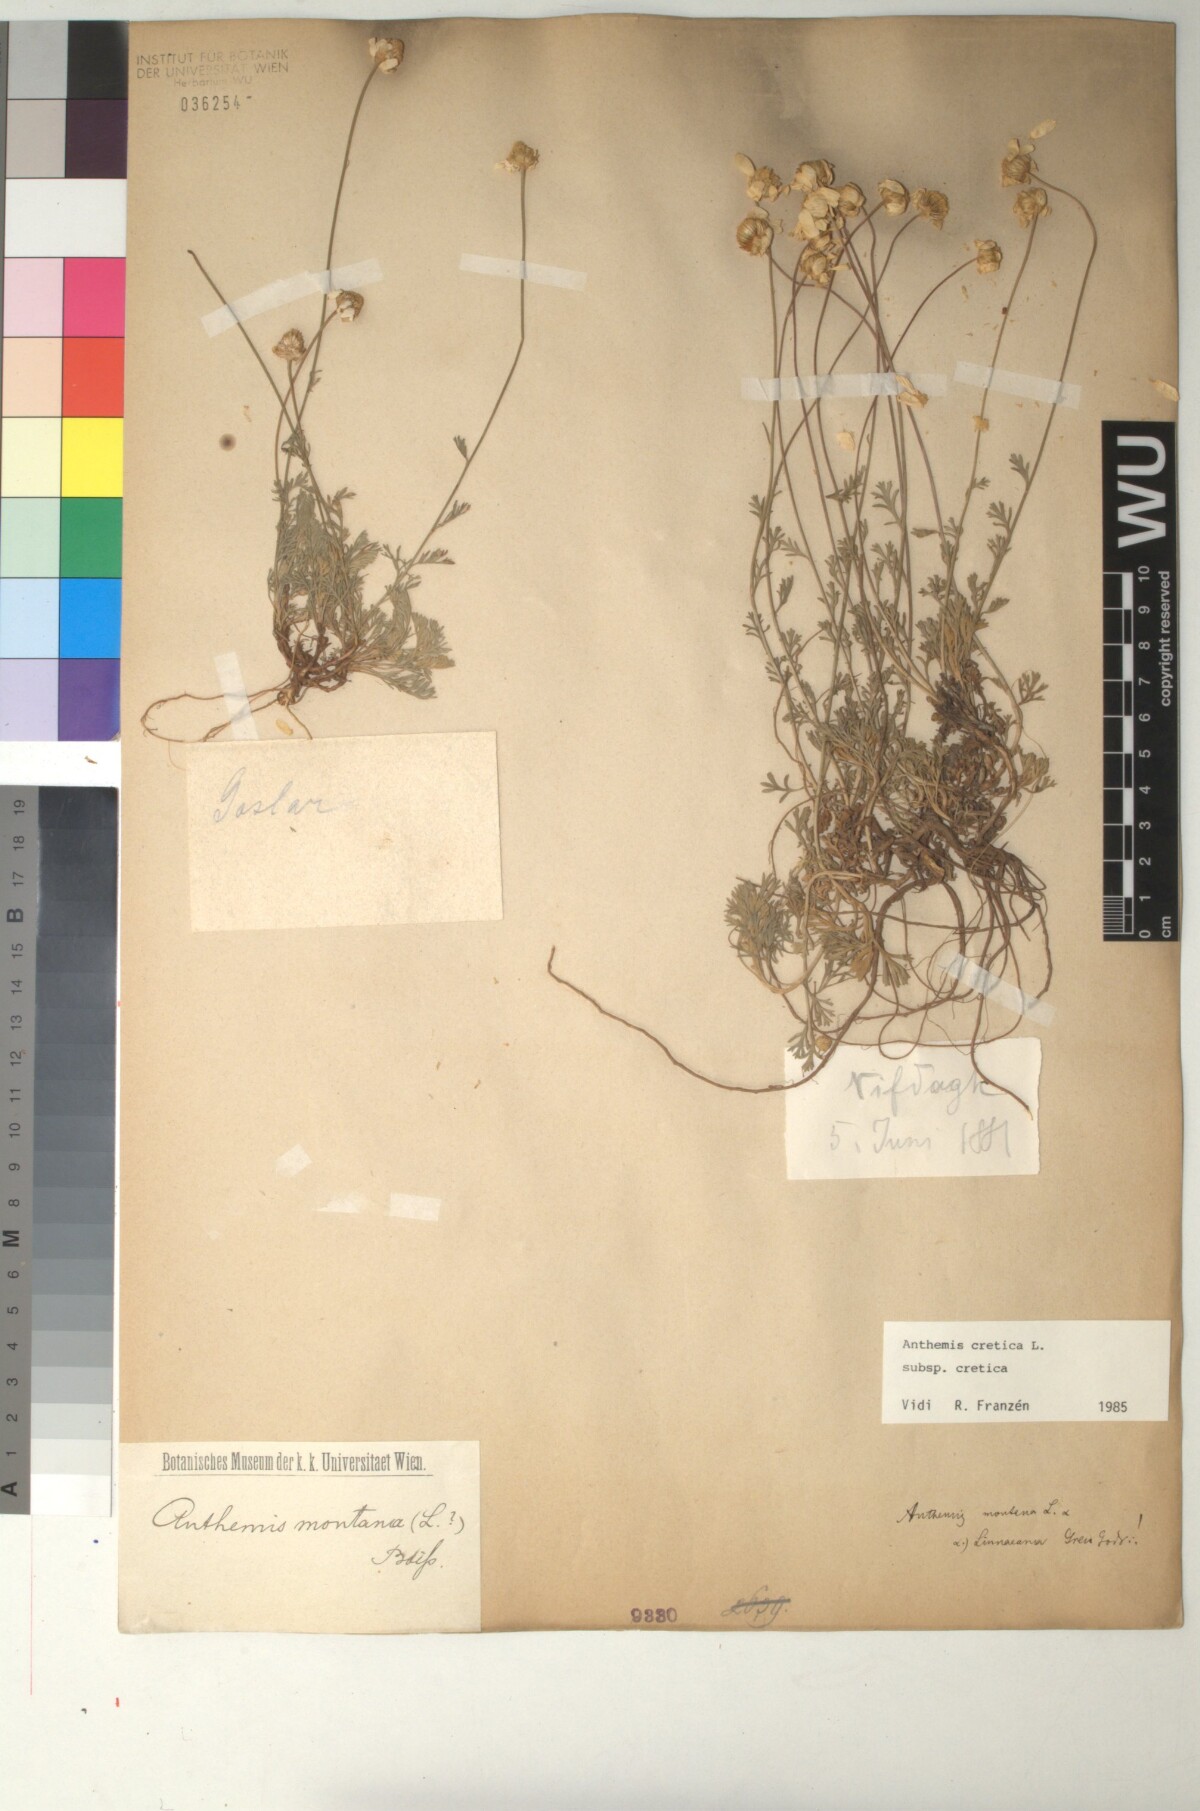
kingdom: Plantae
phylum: Tracheophyta
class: Magnoliopsida
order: Asterales
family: Asteraceae
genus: Anthemis
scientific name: Anthemis cretica
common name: Mountain dog-daisy
